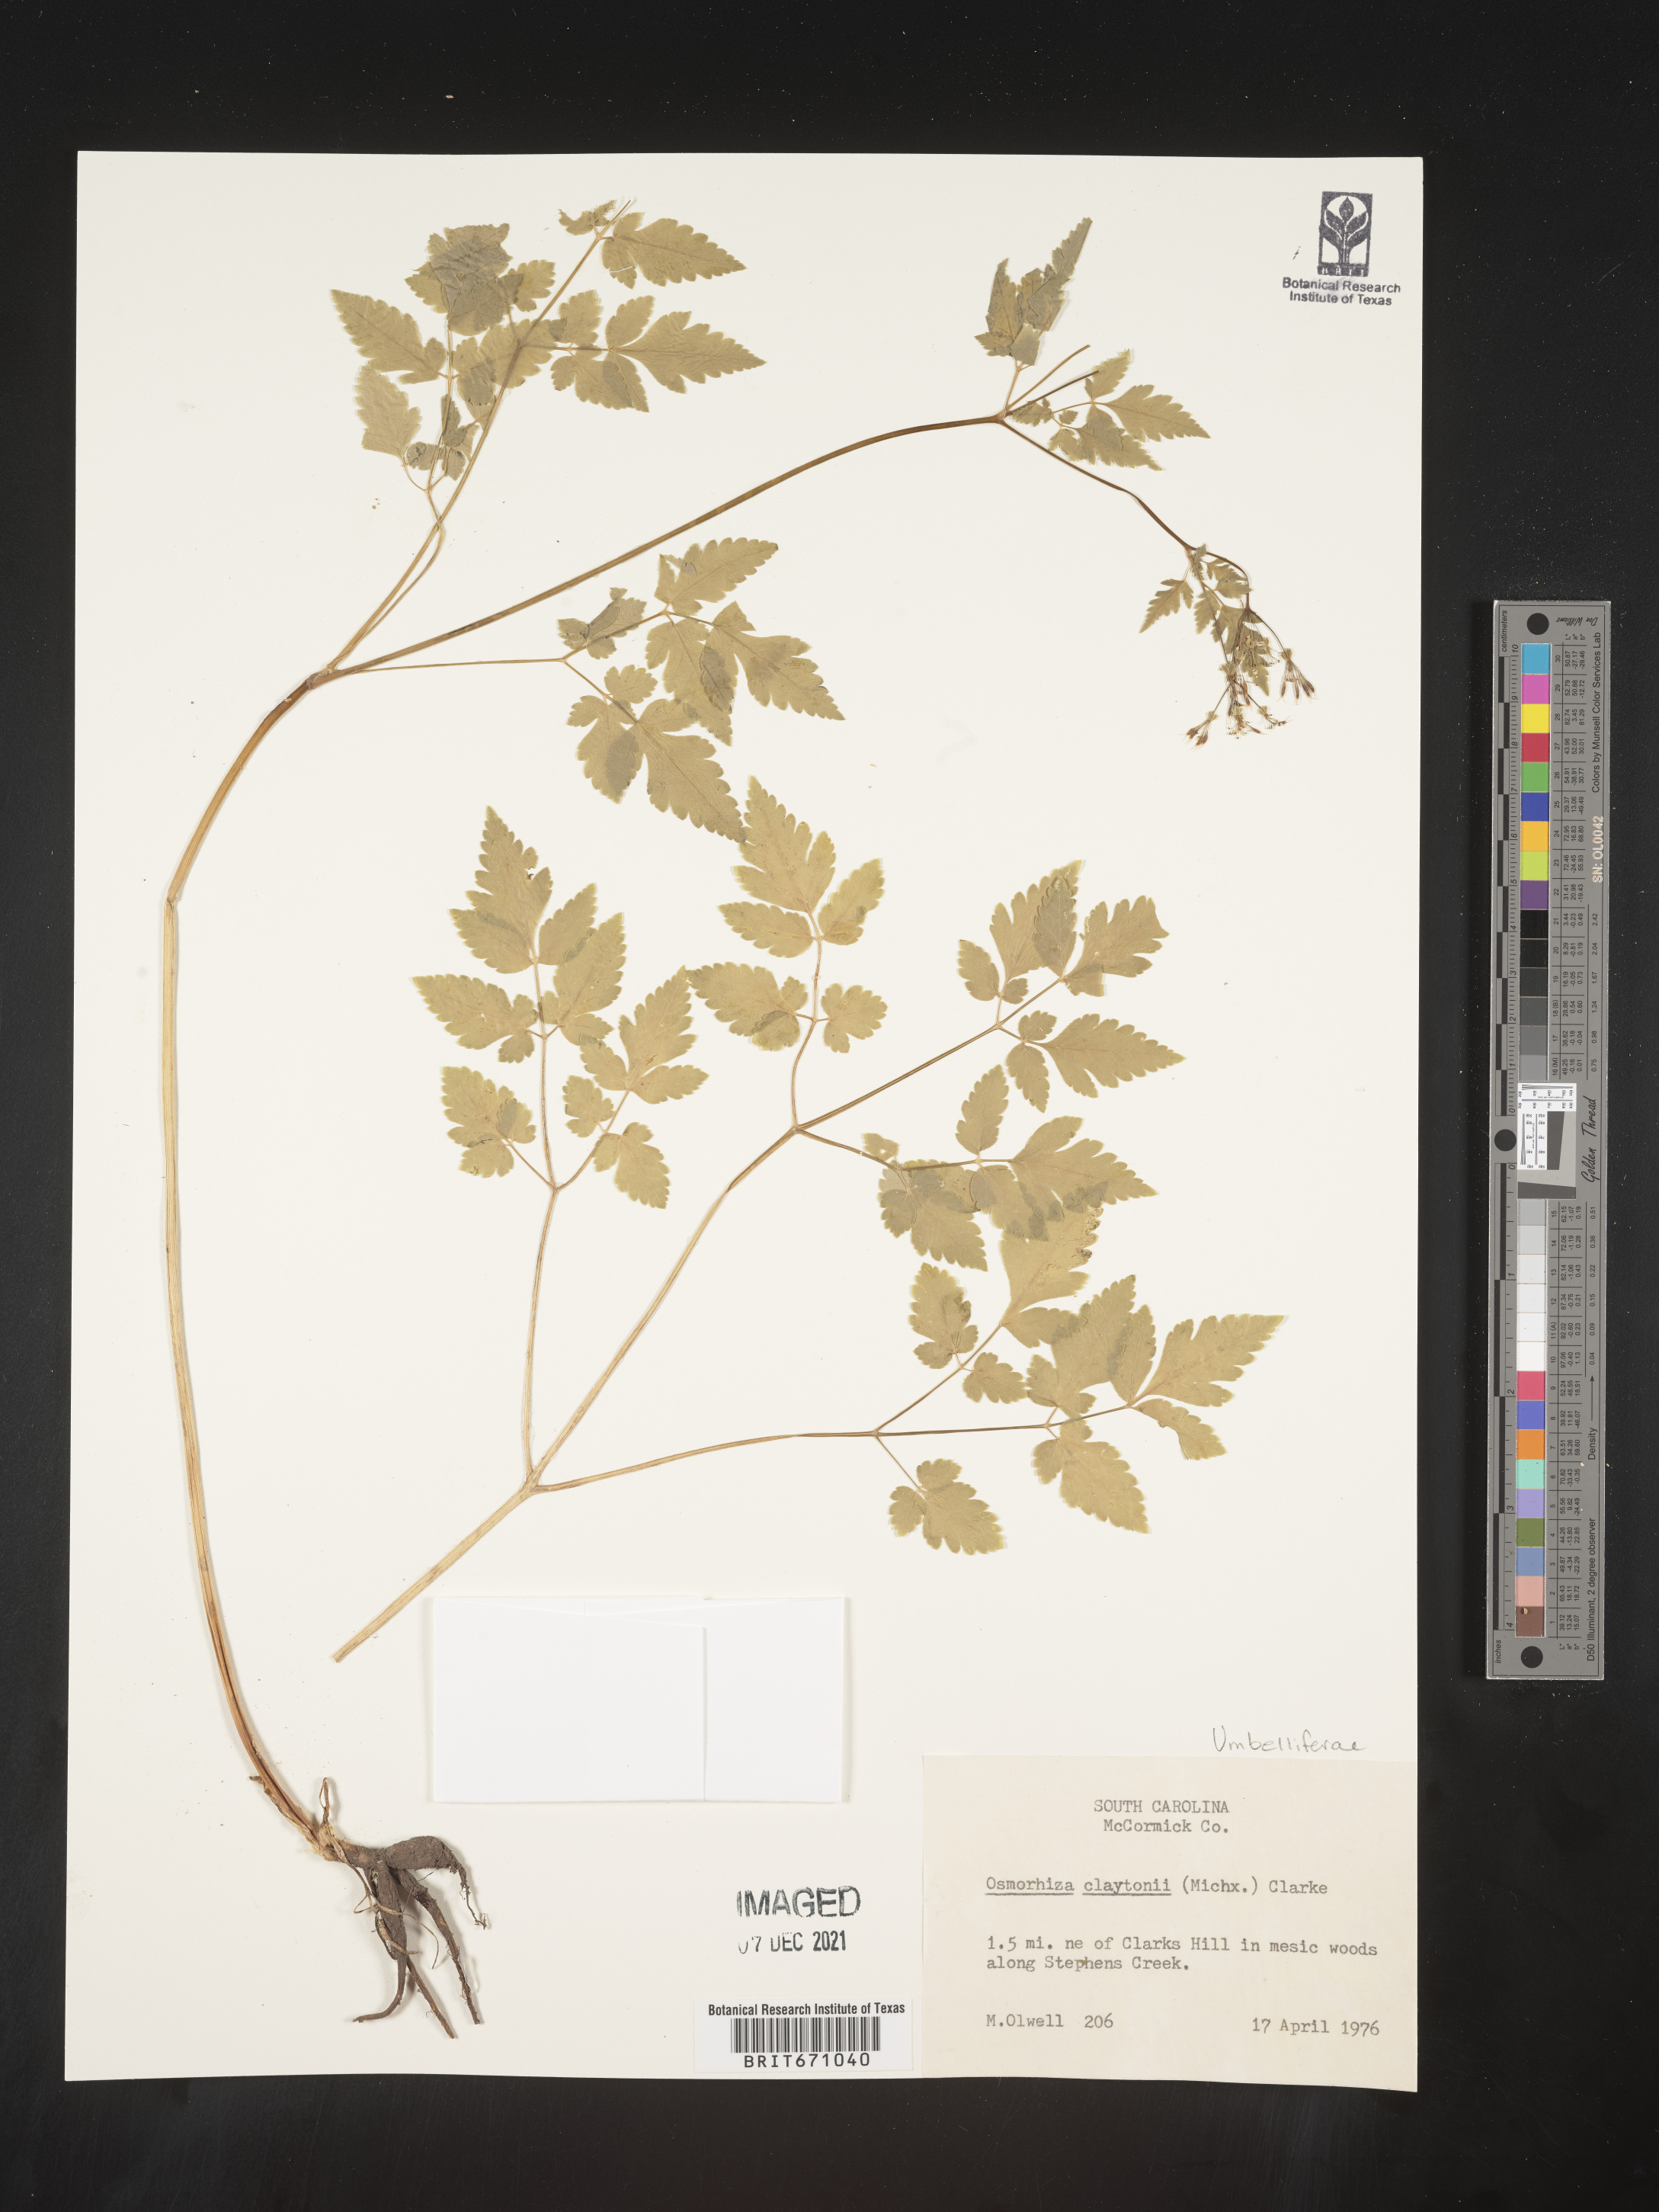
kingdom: Plantae
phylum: Tracheophyta
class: Magnoliopsida
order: Apiales
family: Apiaceae
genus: Osmorhiza
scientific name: Osmorhiza claytonii
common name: Hairy sweet cicely
